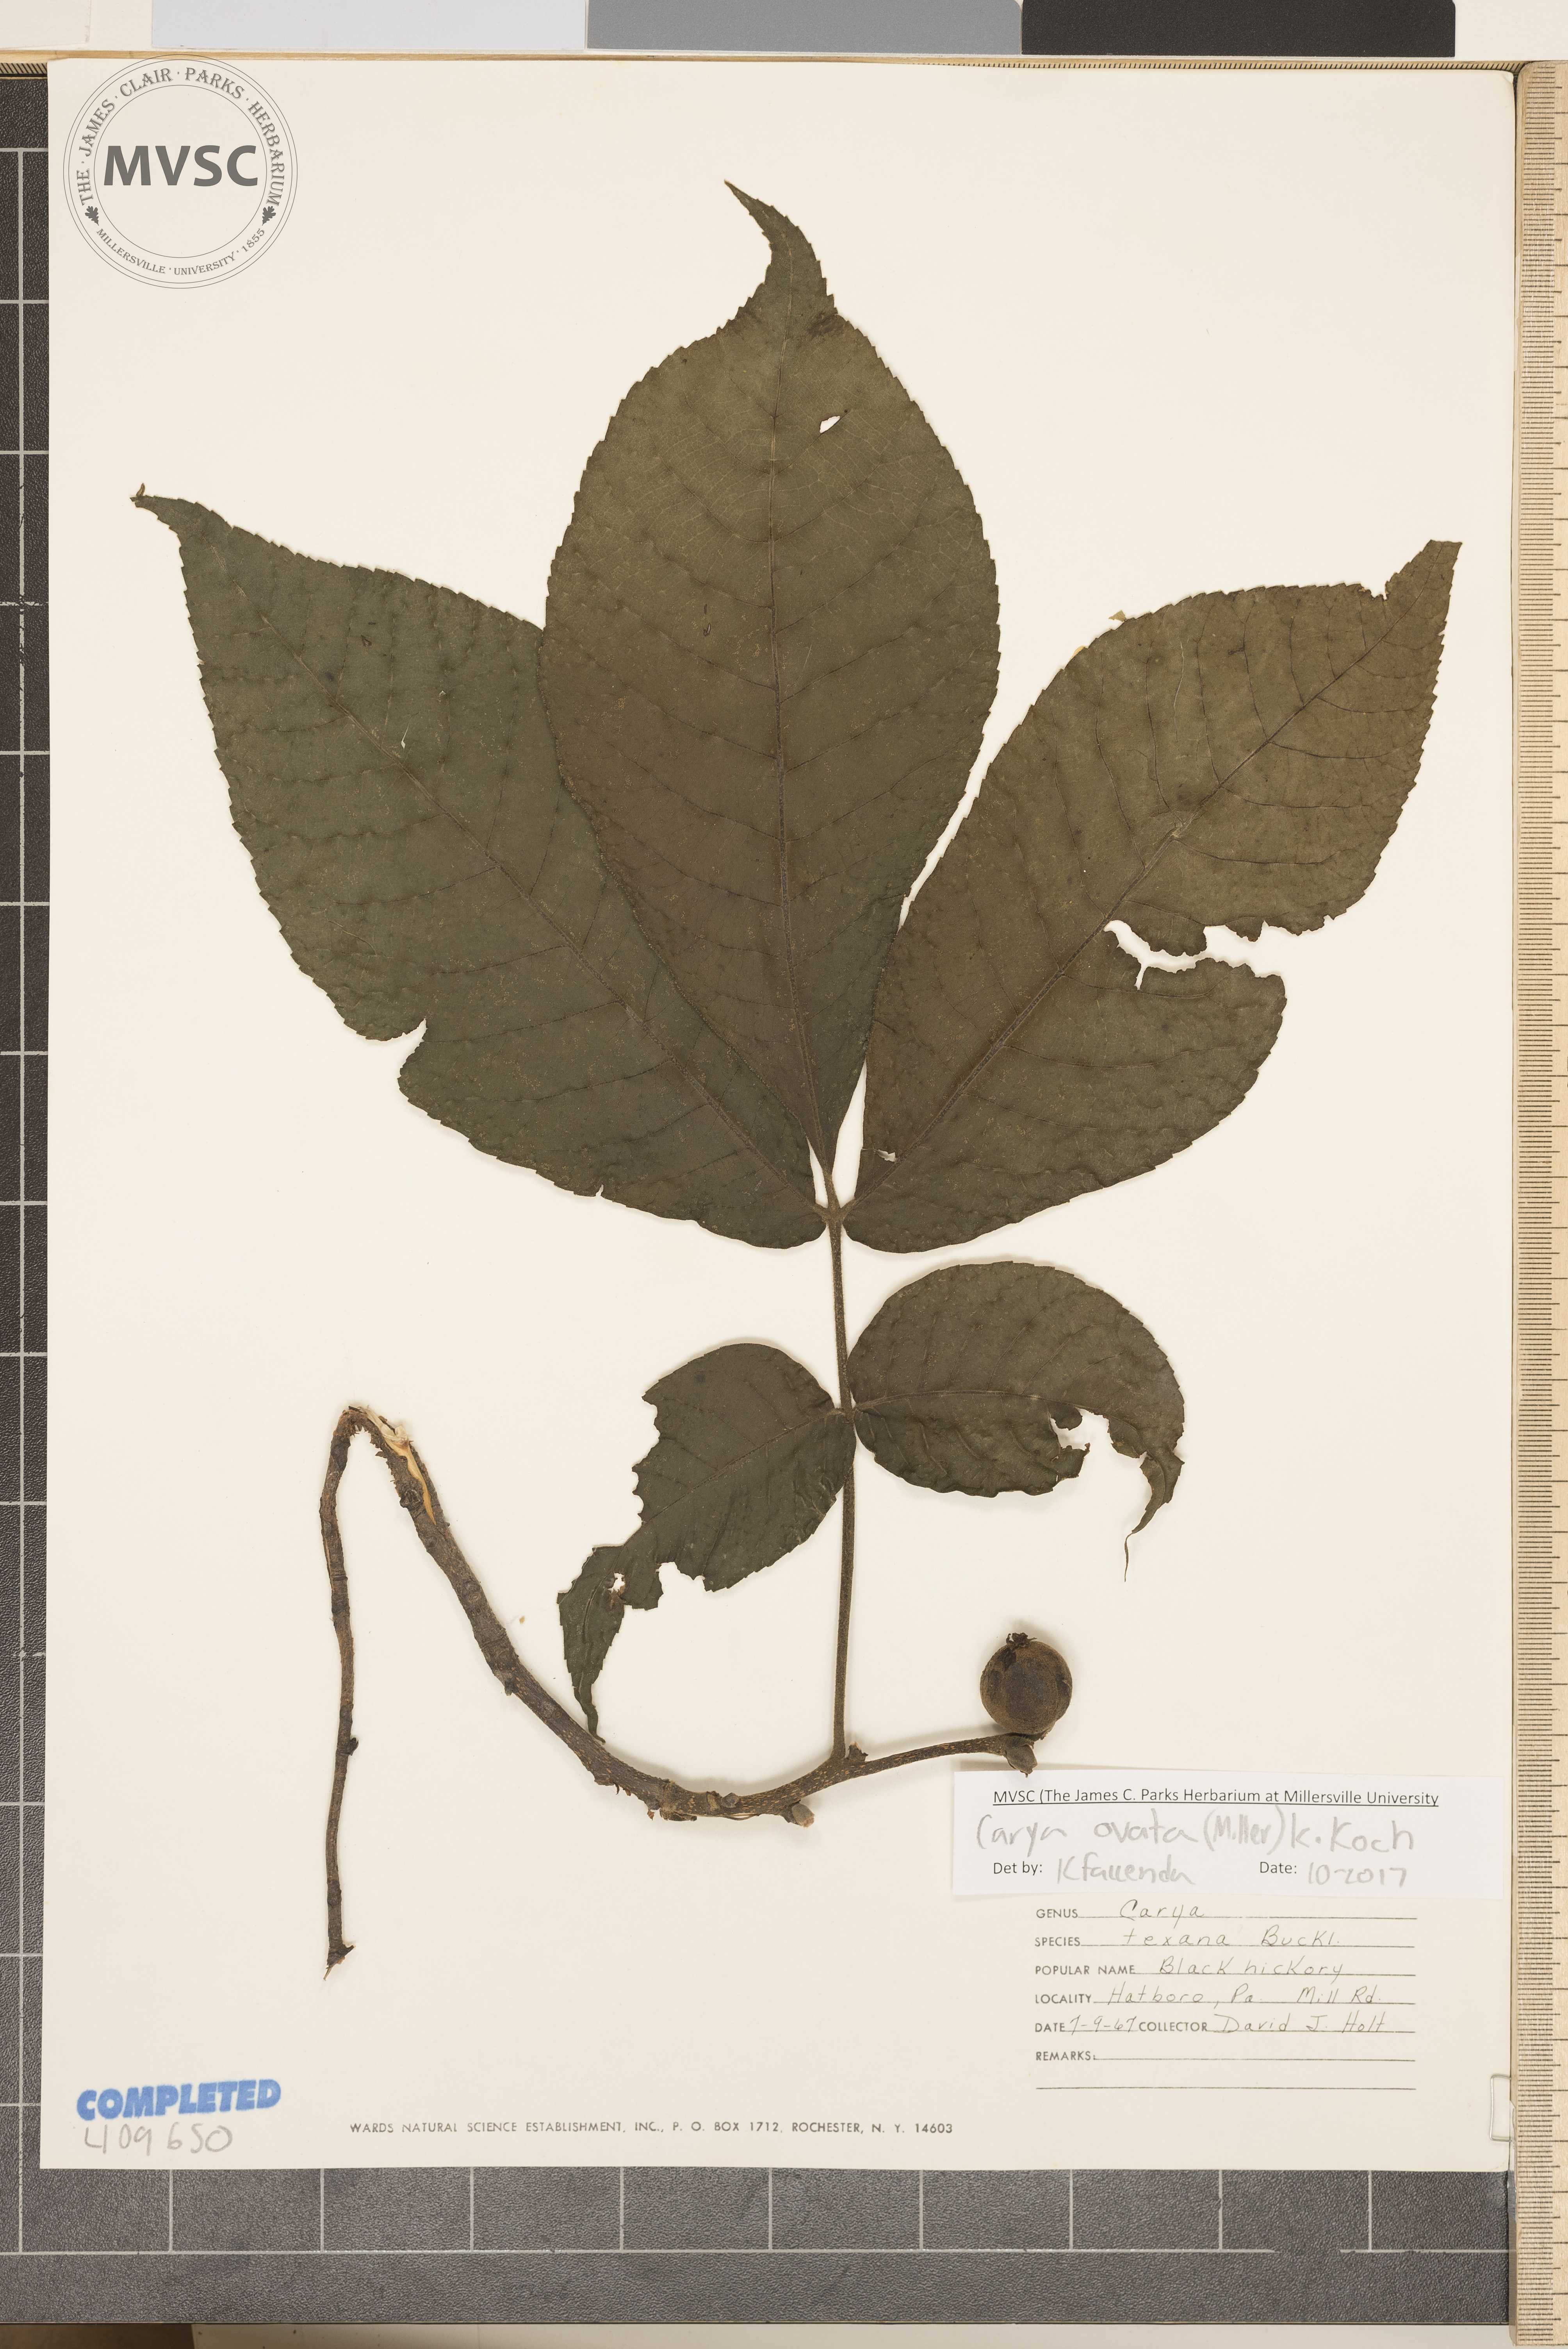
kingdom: Plantae
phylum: Tracheophyta
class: Magnoliopsida
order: Fagales
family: Juglandaceae
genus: Carya
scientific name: Carya ovata
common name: Shagbark hickory
